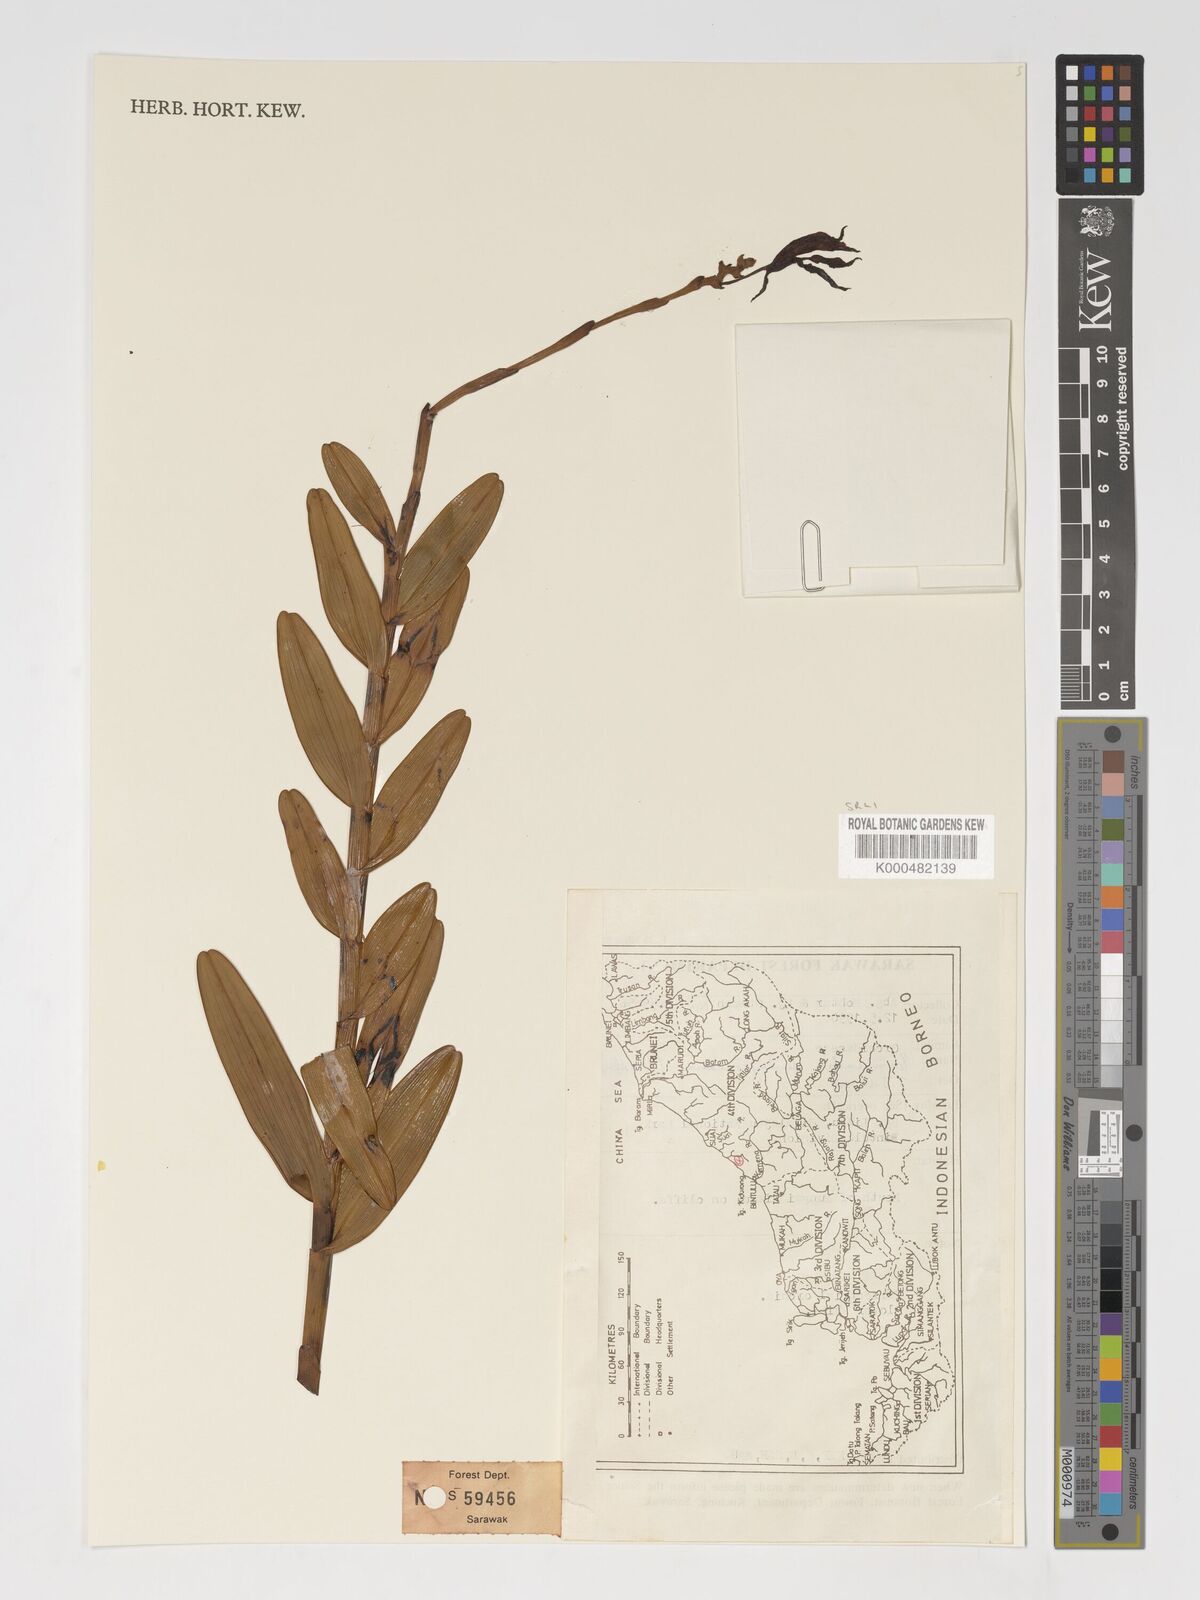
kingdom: Plantae
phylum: Tracheophyta
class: Liliopsida
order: Asparagales
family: Orchidaceae
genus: Bromheadia
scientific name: Bromheadia finlaysoniana
